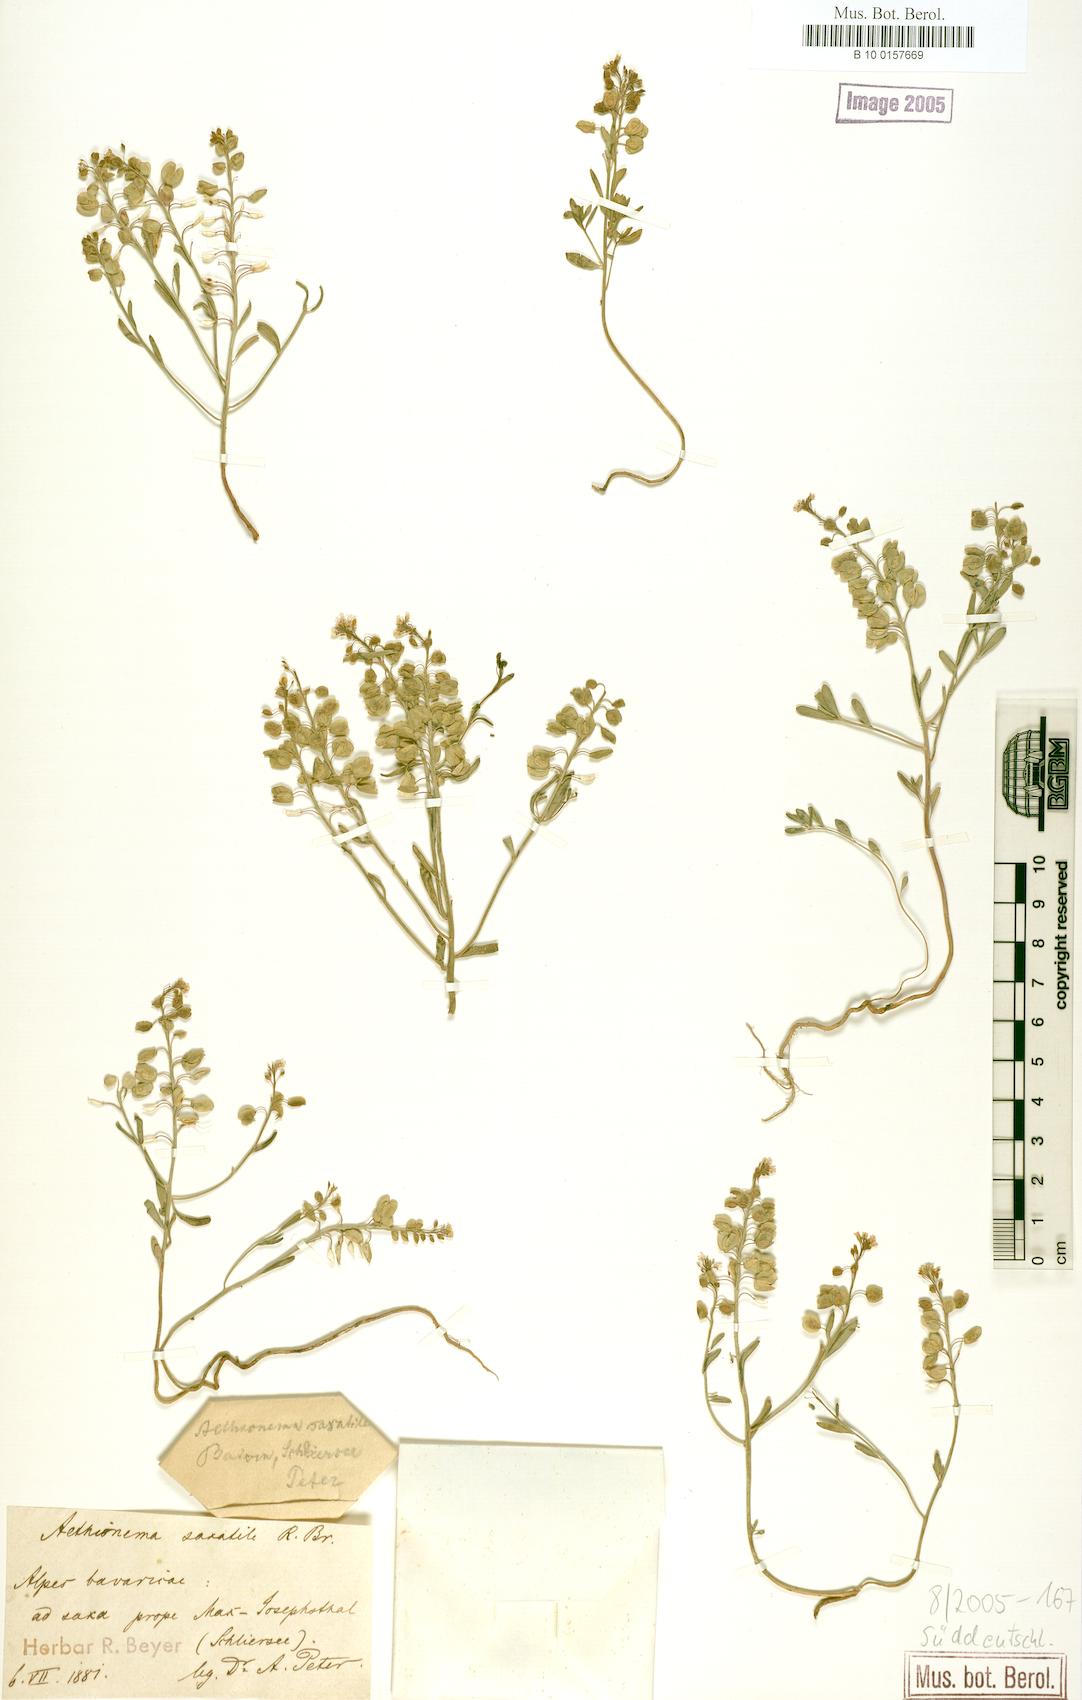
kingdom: Plantae
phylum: Tracheophyta
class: Magnoliopsida
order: Brassicales
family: Brassicaceae
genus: Aethionema
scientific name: Aethionema saxatile
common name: Burnt candytuft
